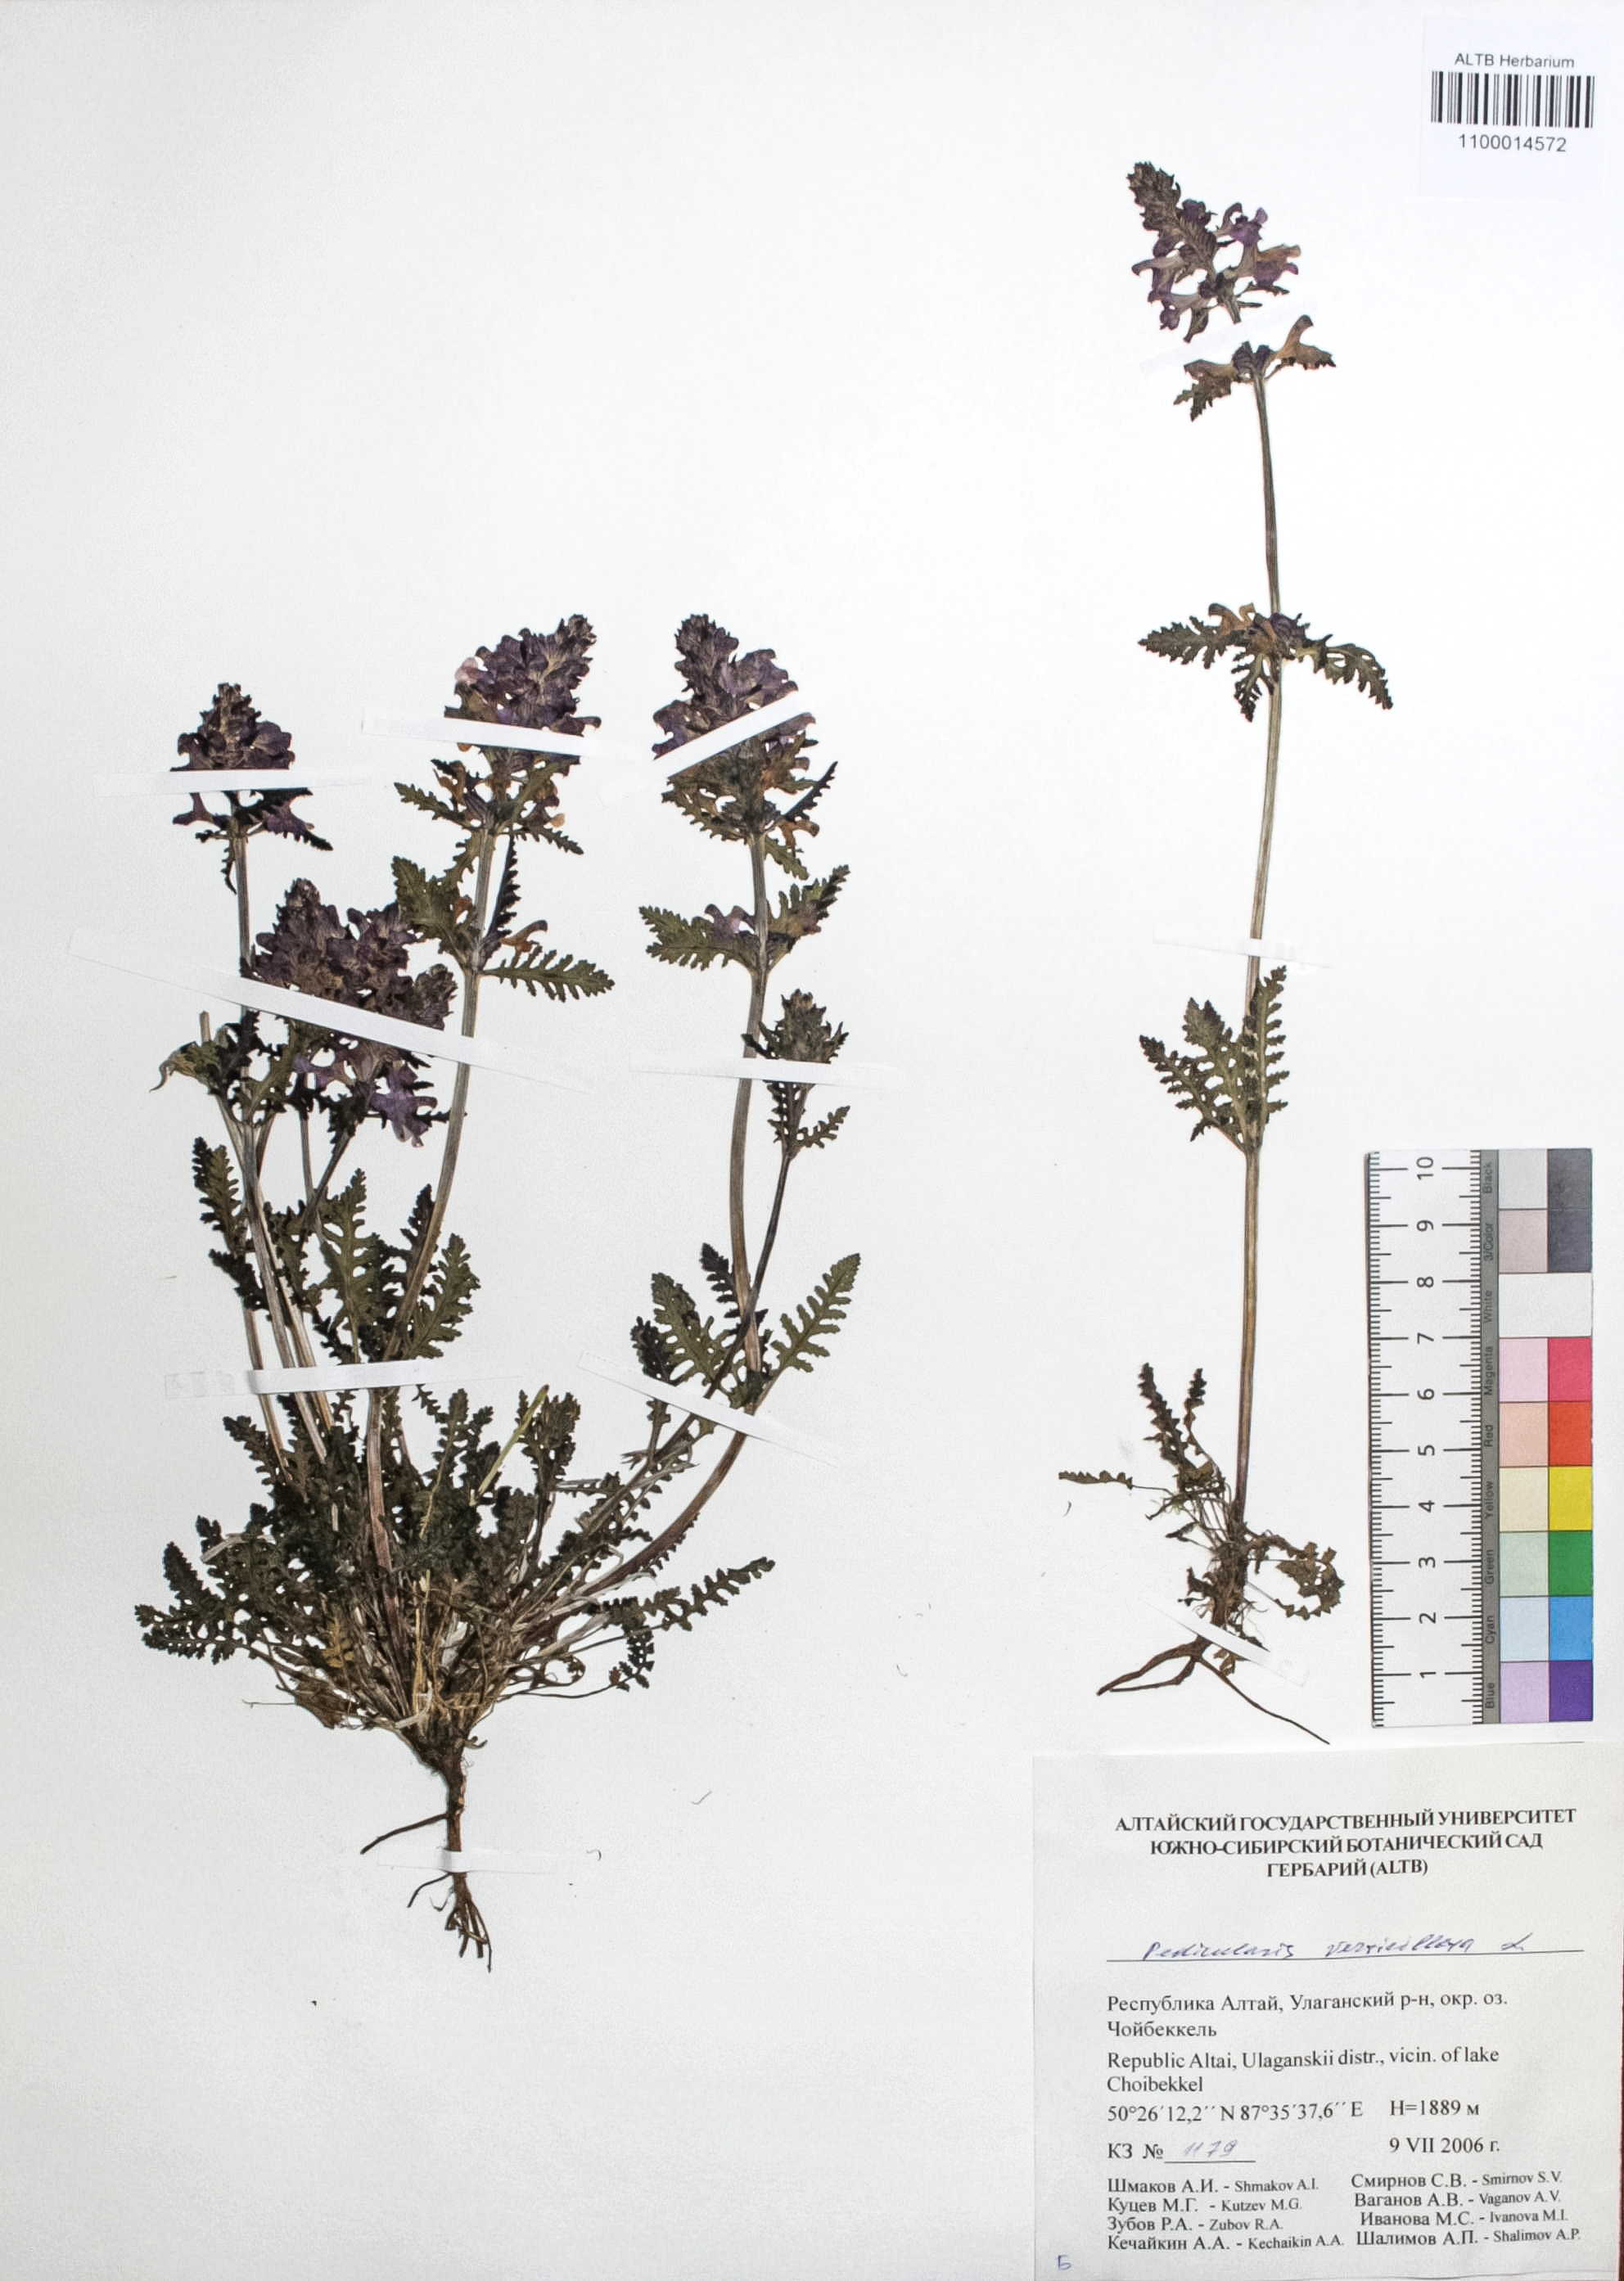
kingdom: Plantae
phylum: Tracheophyta
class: Magnoliopsida
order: Lamiales
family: Orobanchaceae
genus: Pedicularis
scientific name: Pedicularis verticillata
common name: Whorled lousewort
